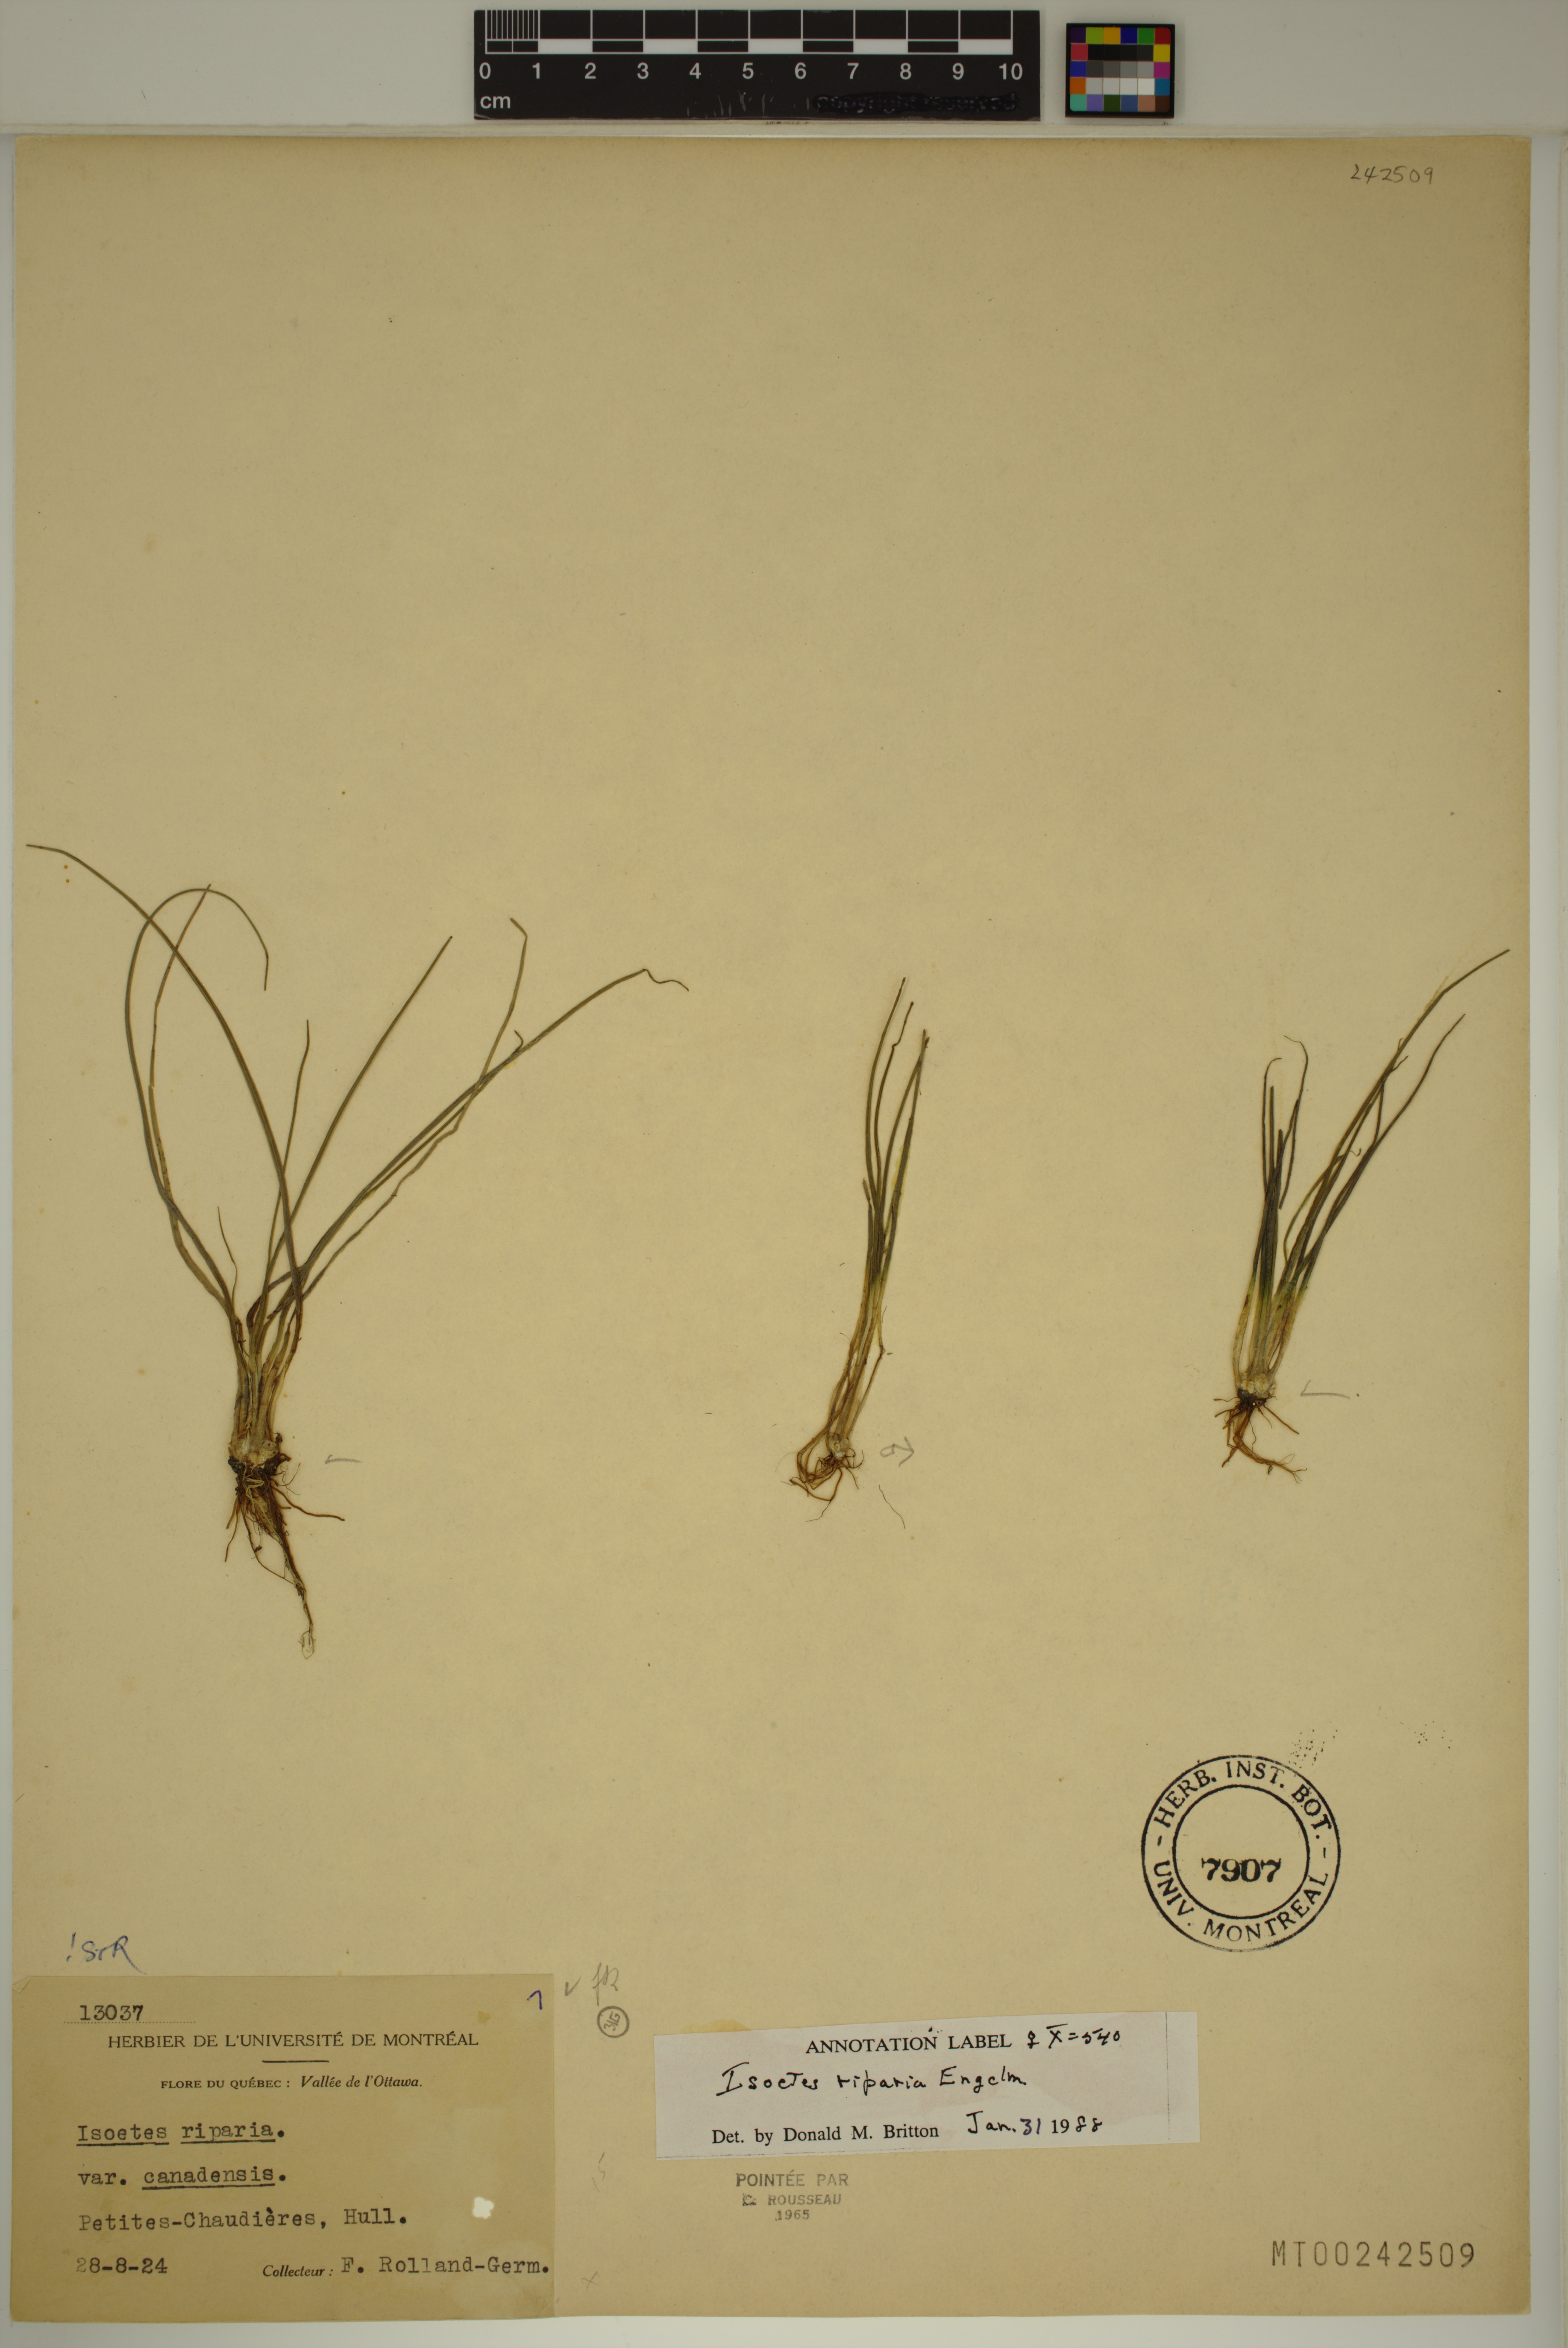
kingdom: Plantae
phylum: Tracheophyta
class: Lycopodiopsida
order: Isoetales
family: Isoetaceae
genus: Isoetes
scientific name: Isoetes septentrionalis
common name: Northern quillwort
